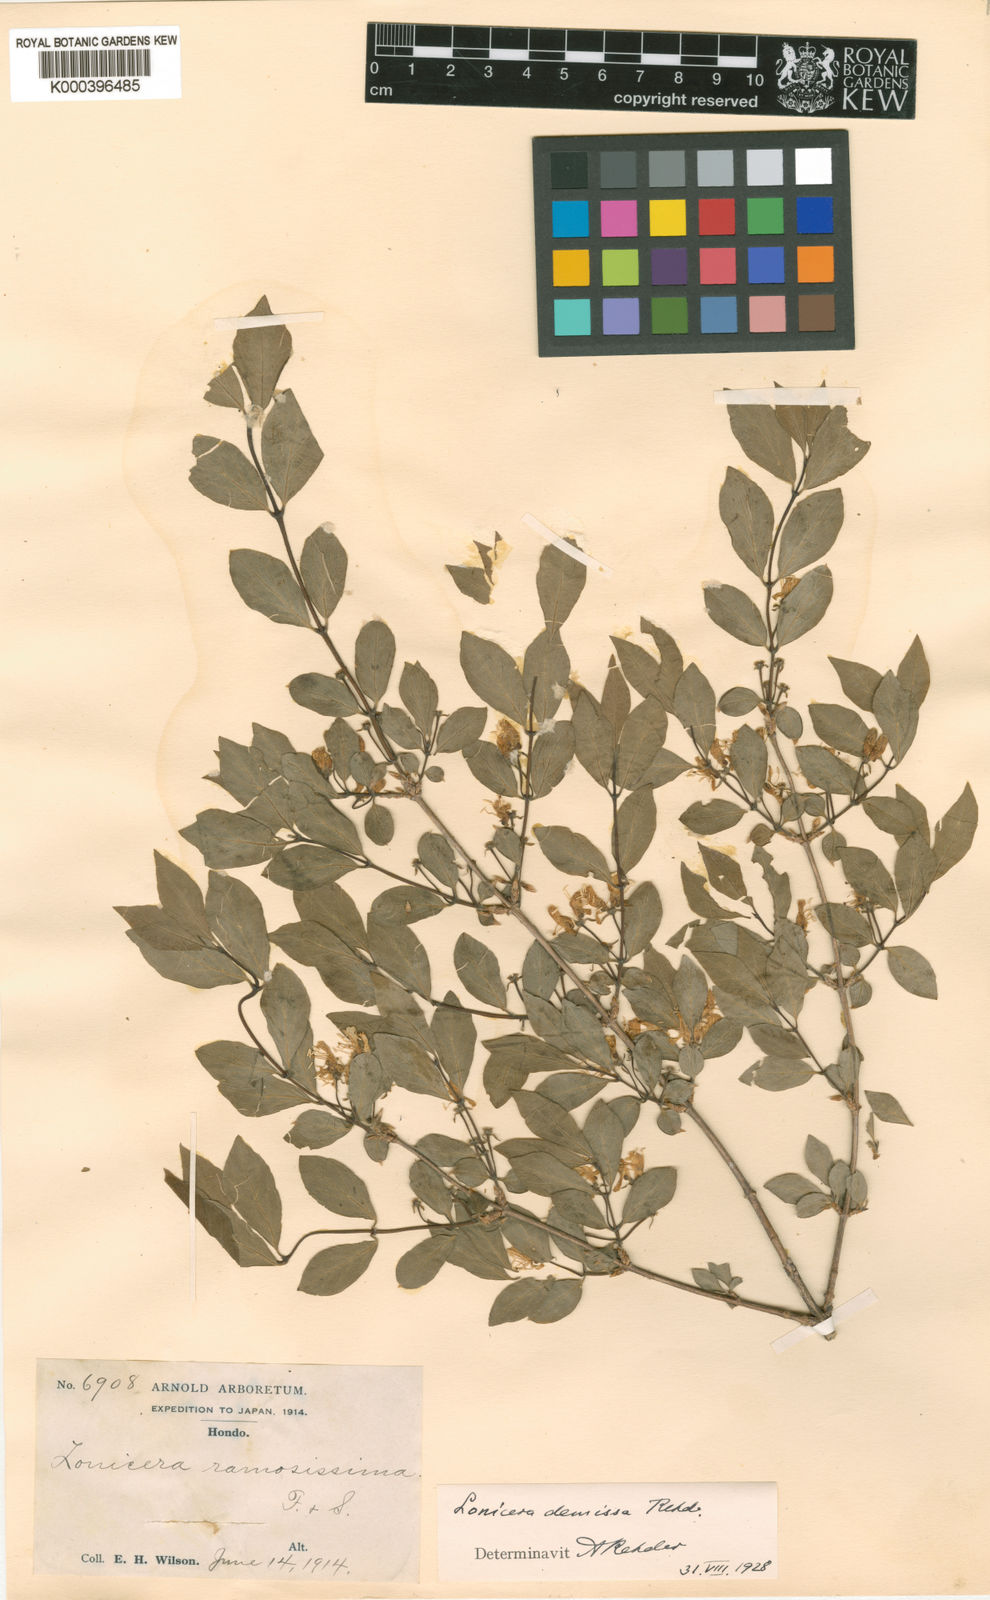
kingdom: Plantae
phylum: Tracheophyta
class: Magnoliopsida
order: Dipsacales
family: Caprifoliaceae
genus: Lonicera
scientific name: Lonicera demissa
